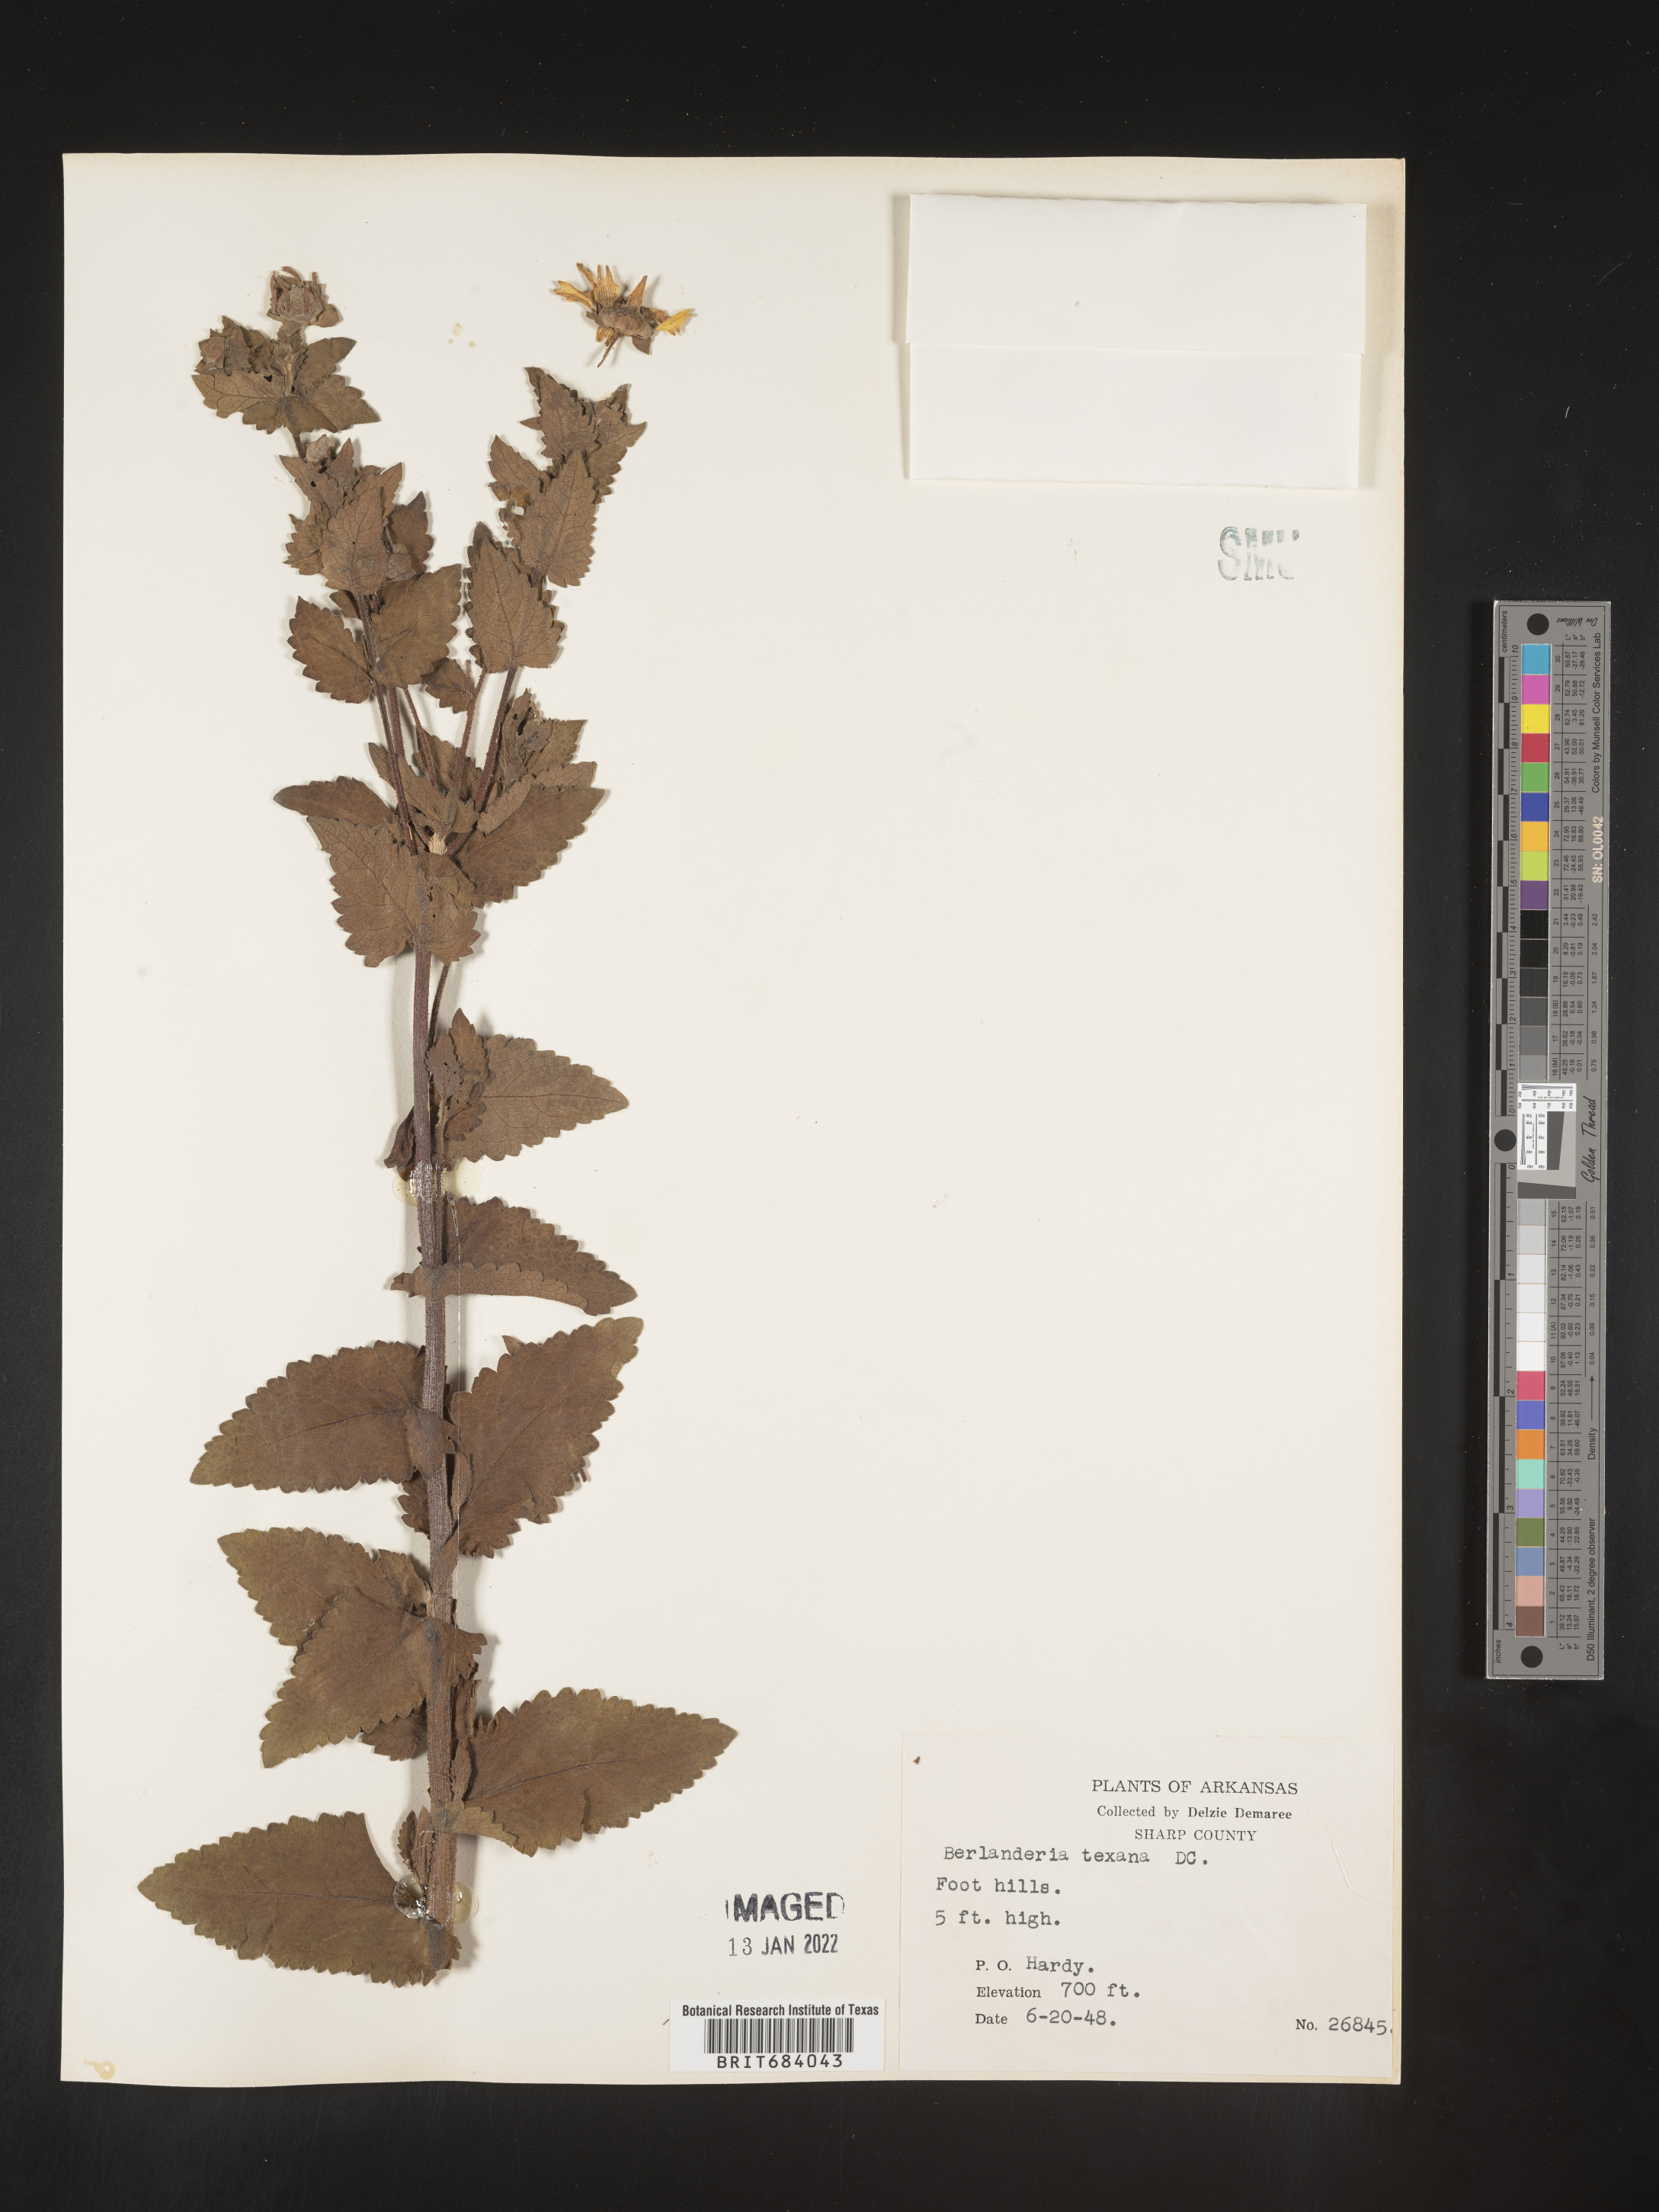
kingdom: Plantae
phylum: Tracheophyta
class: Magnoliopsida
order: Asterales
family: Asteraceae
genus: Berlandiera
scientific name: Berlandiera texana
